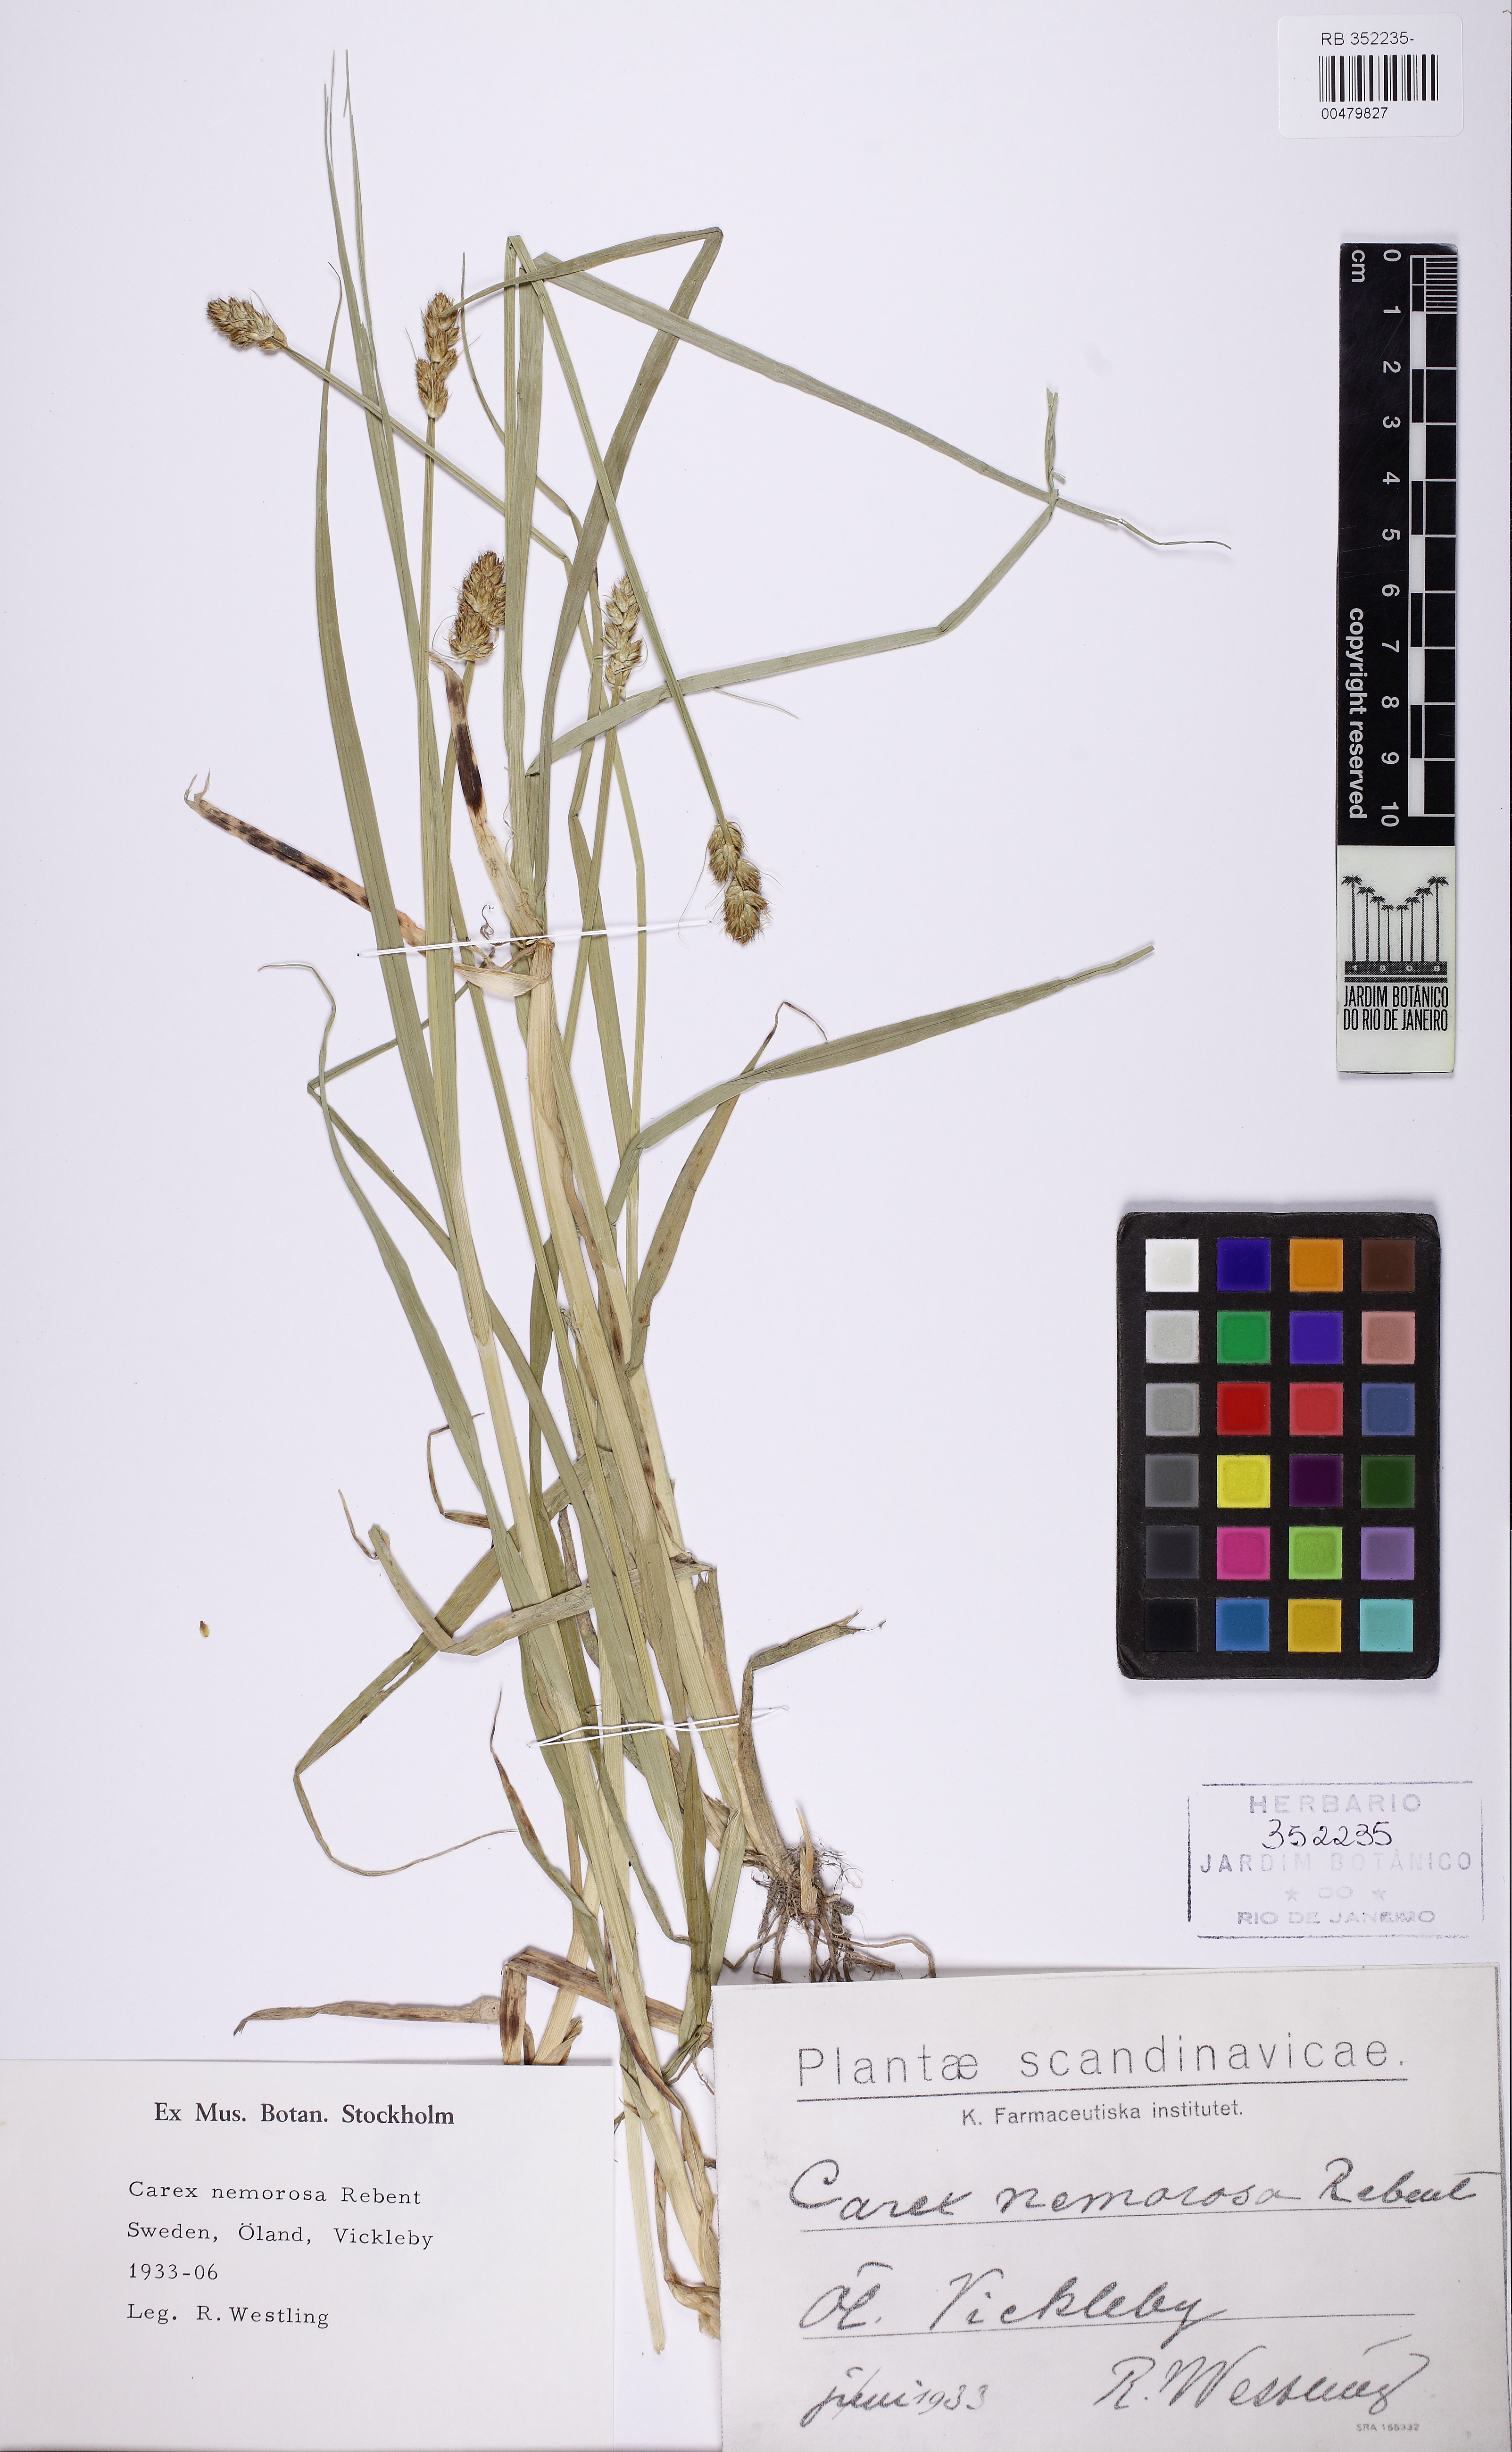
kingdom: Plantae
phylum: Tracheophyta
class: Liliopsida
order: Poales
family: Cyperaceae
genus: Carex
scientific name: Carex otrubae
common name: False fox-sedge
